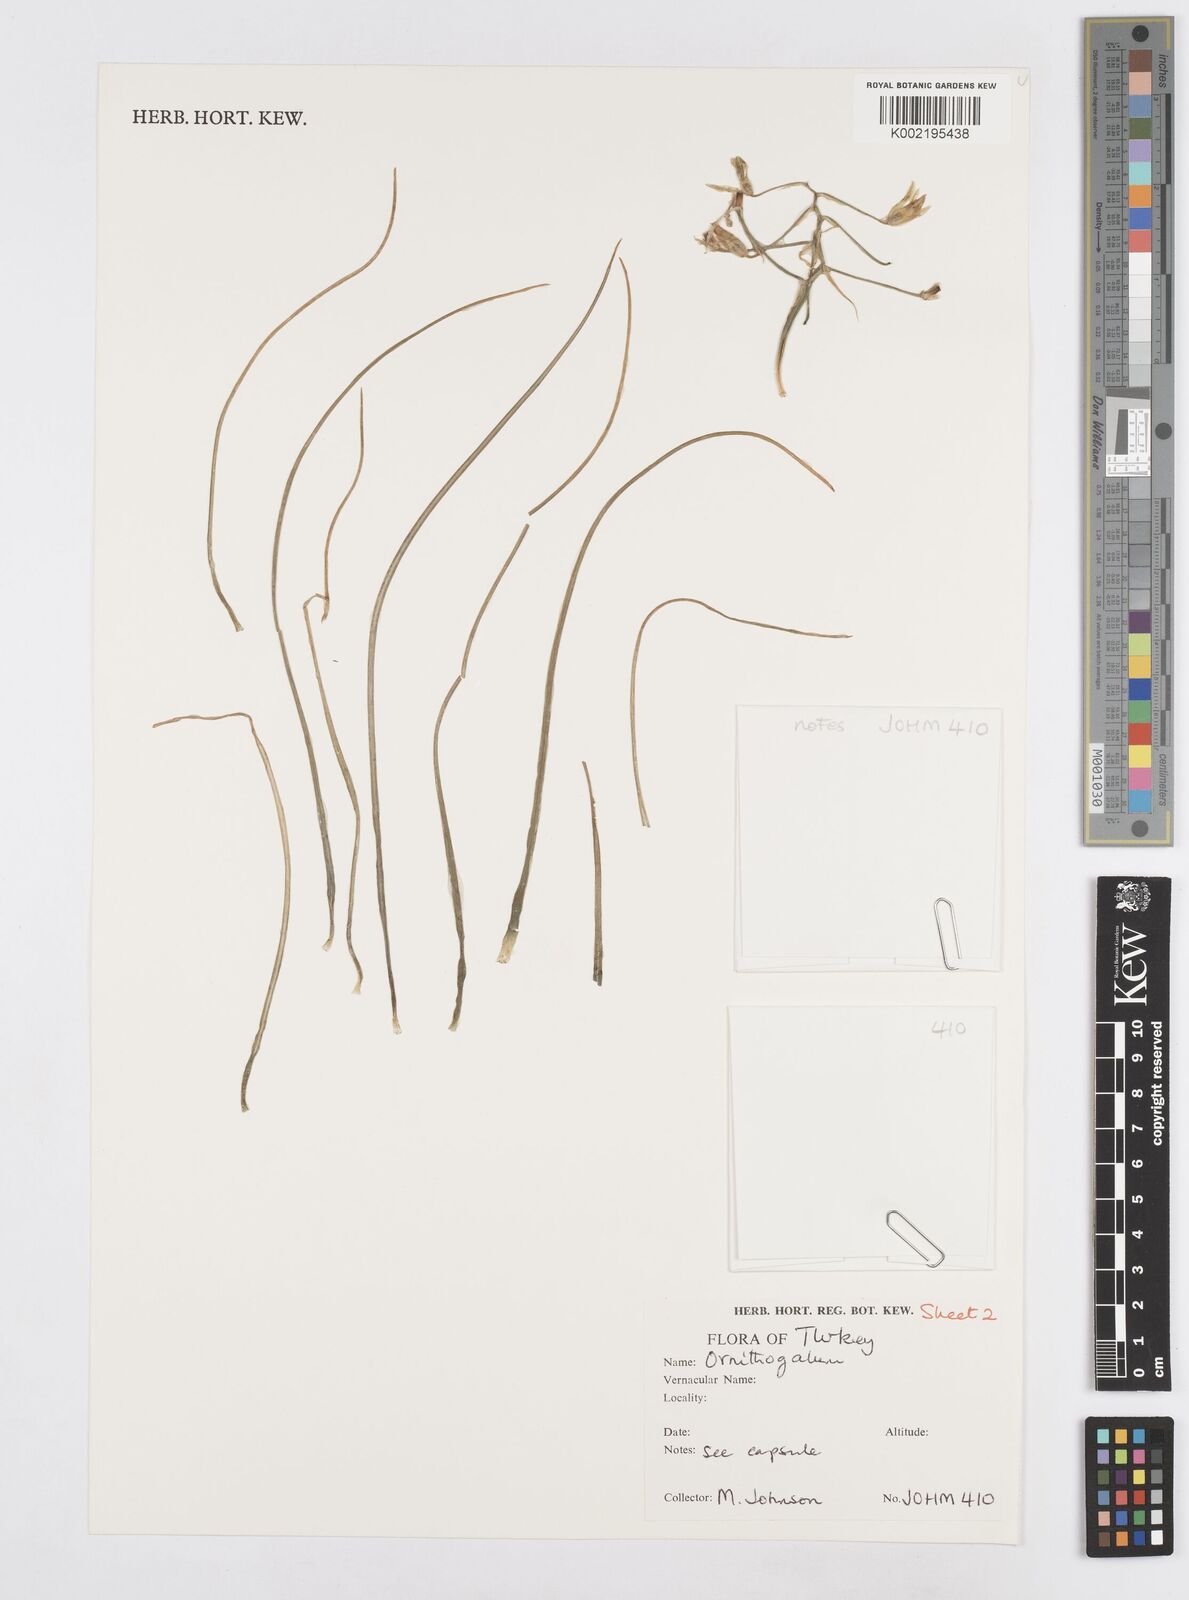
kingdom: Plantae
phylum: Tracheophyta
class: Liliopsida
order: Asparagales
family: Asparagaceae
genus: Ornithogalum
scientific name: Ornithogalum
